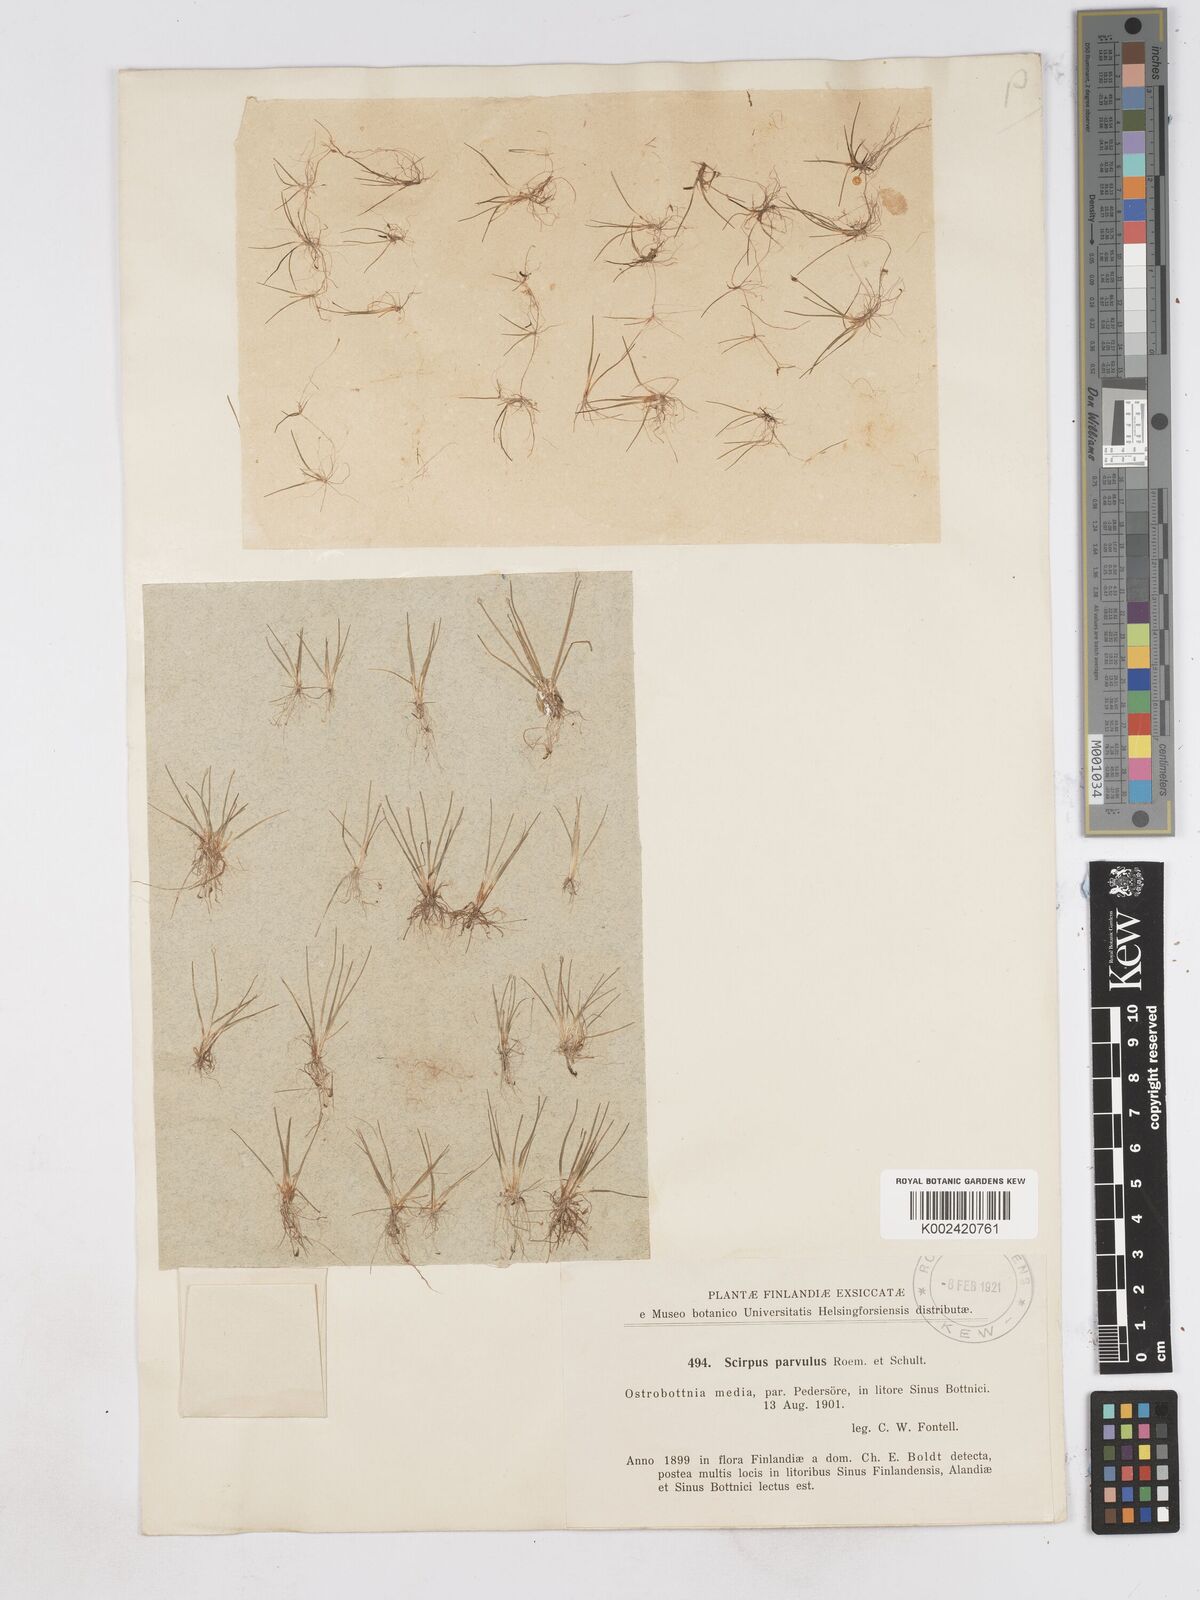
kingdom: Plantae
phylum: Tracheophyta
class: Liliopsida
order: Poales
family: Cyperaceae
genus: Eleocharis
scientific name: Eleocharis parvula
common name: Dwarf spike-rush
